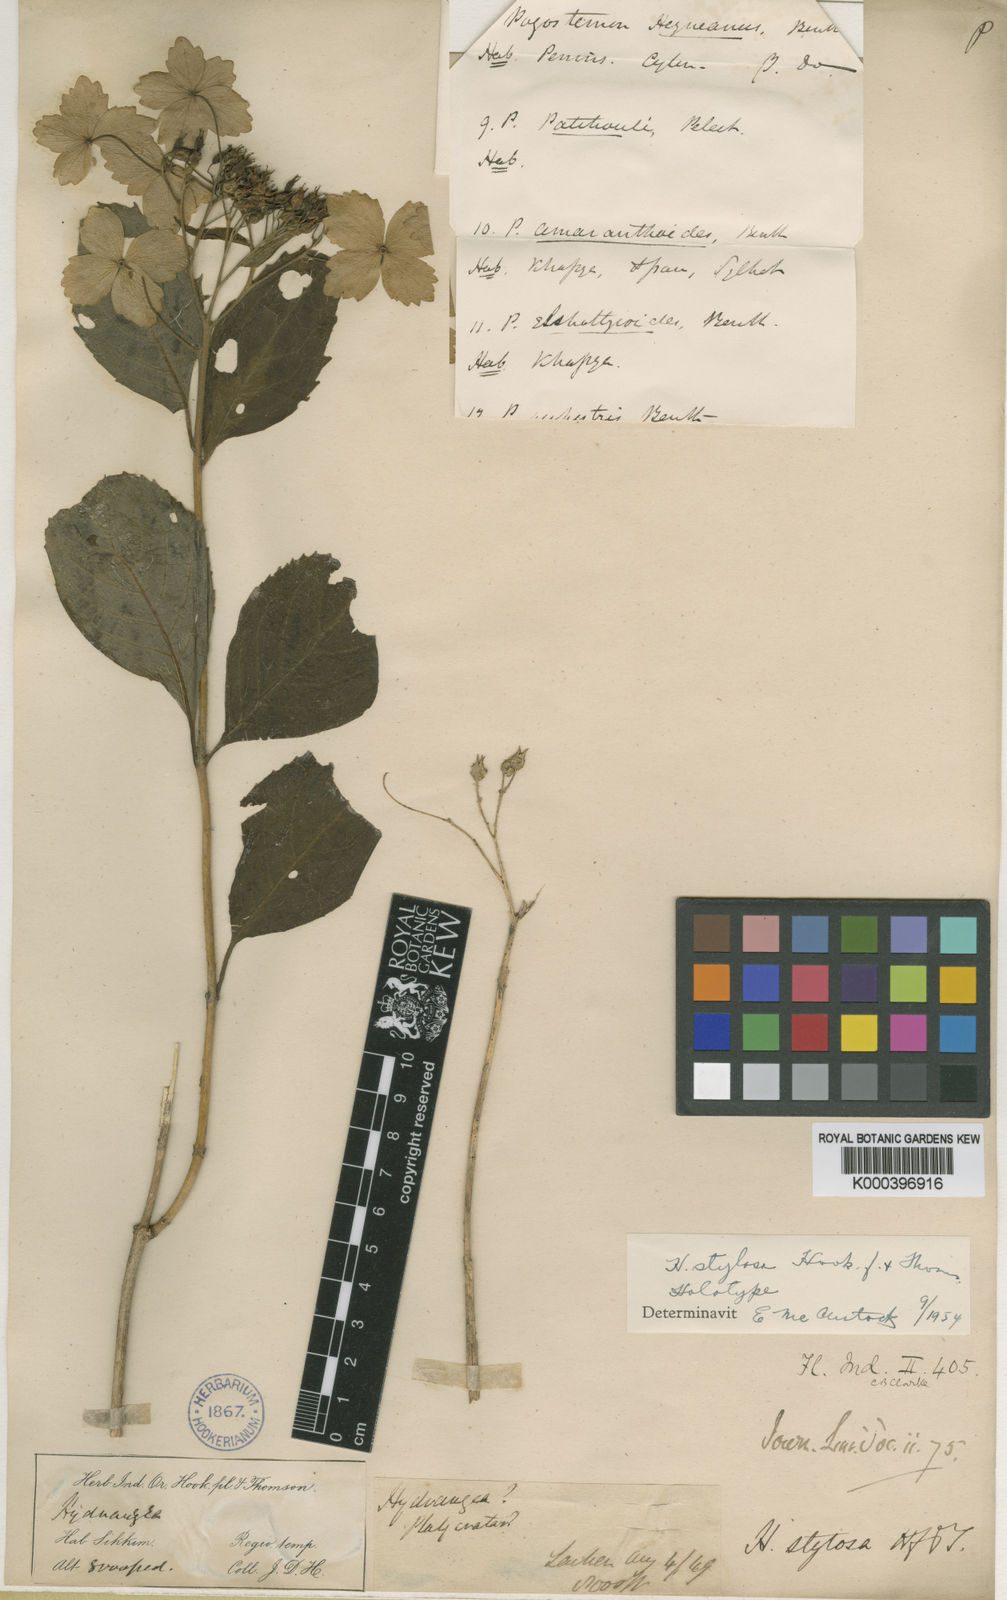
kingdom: Plantae
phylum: Tracheophyta
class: Magnoliopsida
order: Cornales
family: Hydrangeaceae
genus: Hydrangea
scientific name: Hydrangea stylosa
